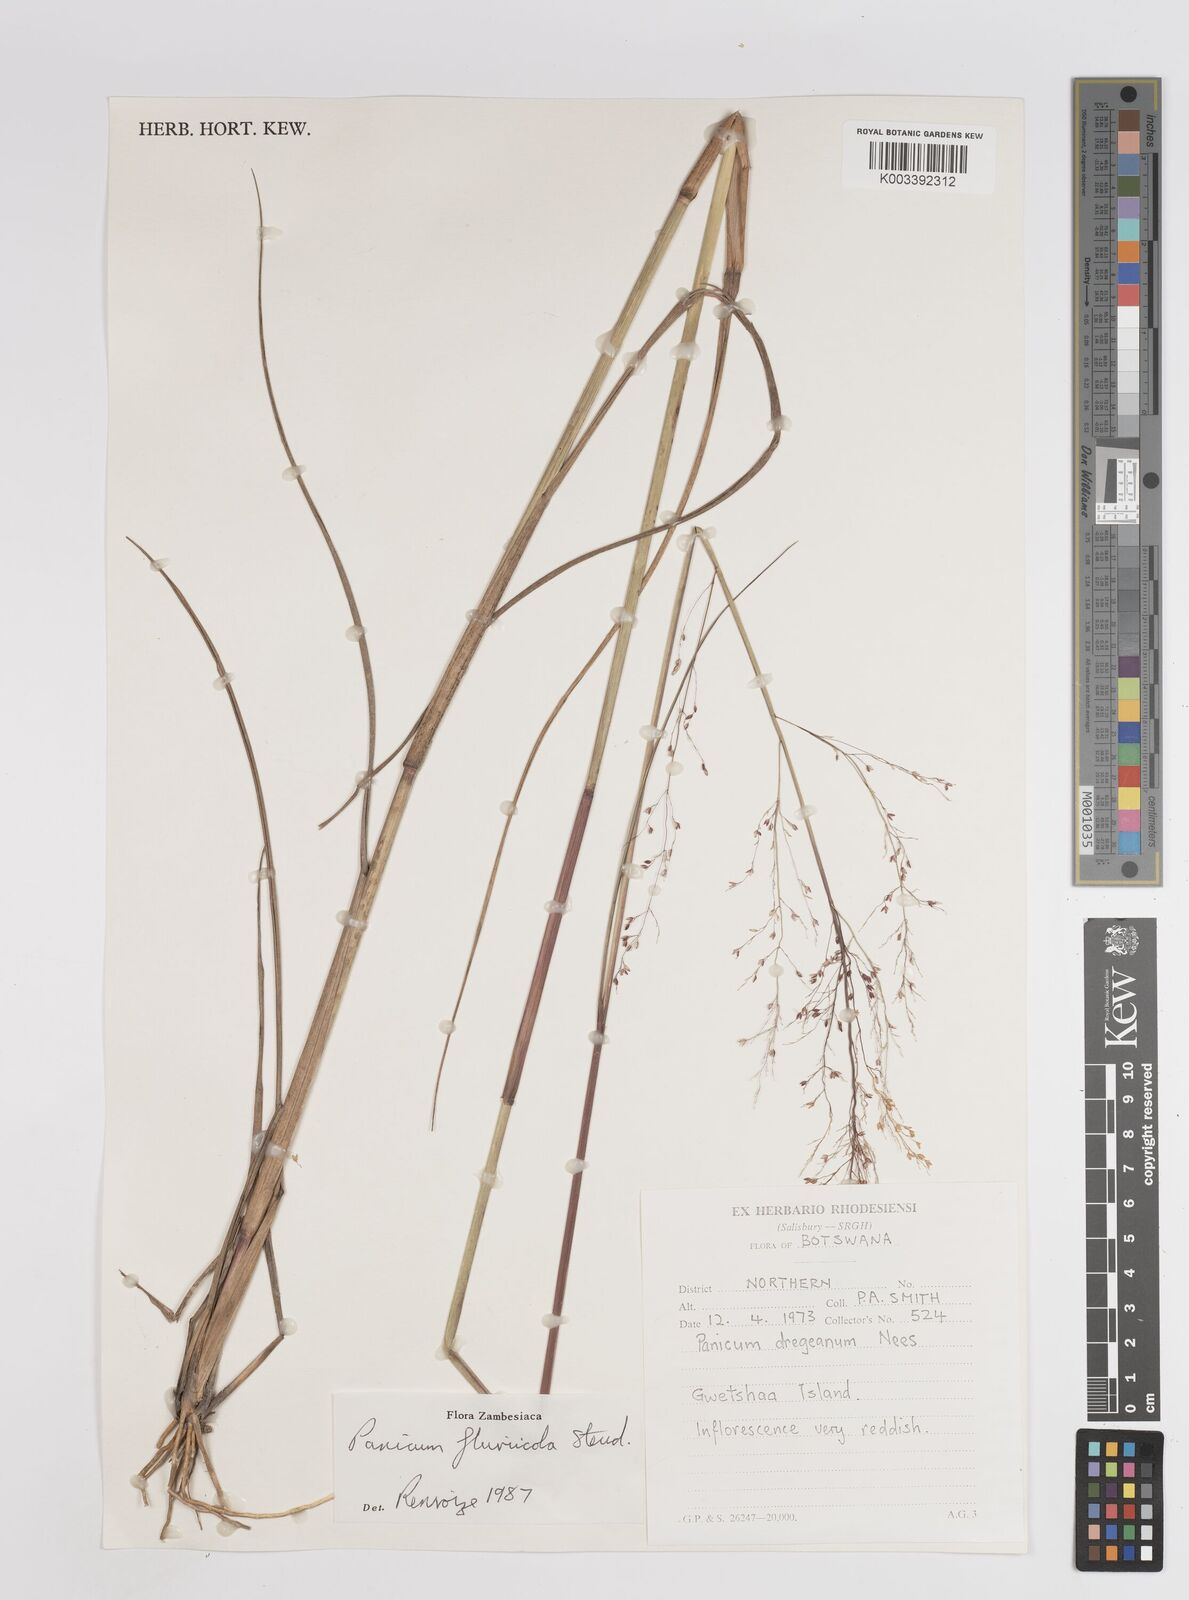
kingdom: Plantae
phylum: Tracheophyta
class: Liliopsida
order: Poales
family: Poaceae
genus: Panicum
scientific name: Panicum fluviicola
